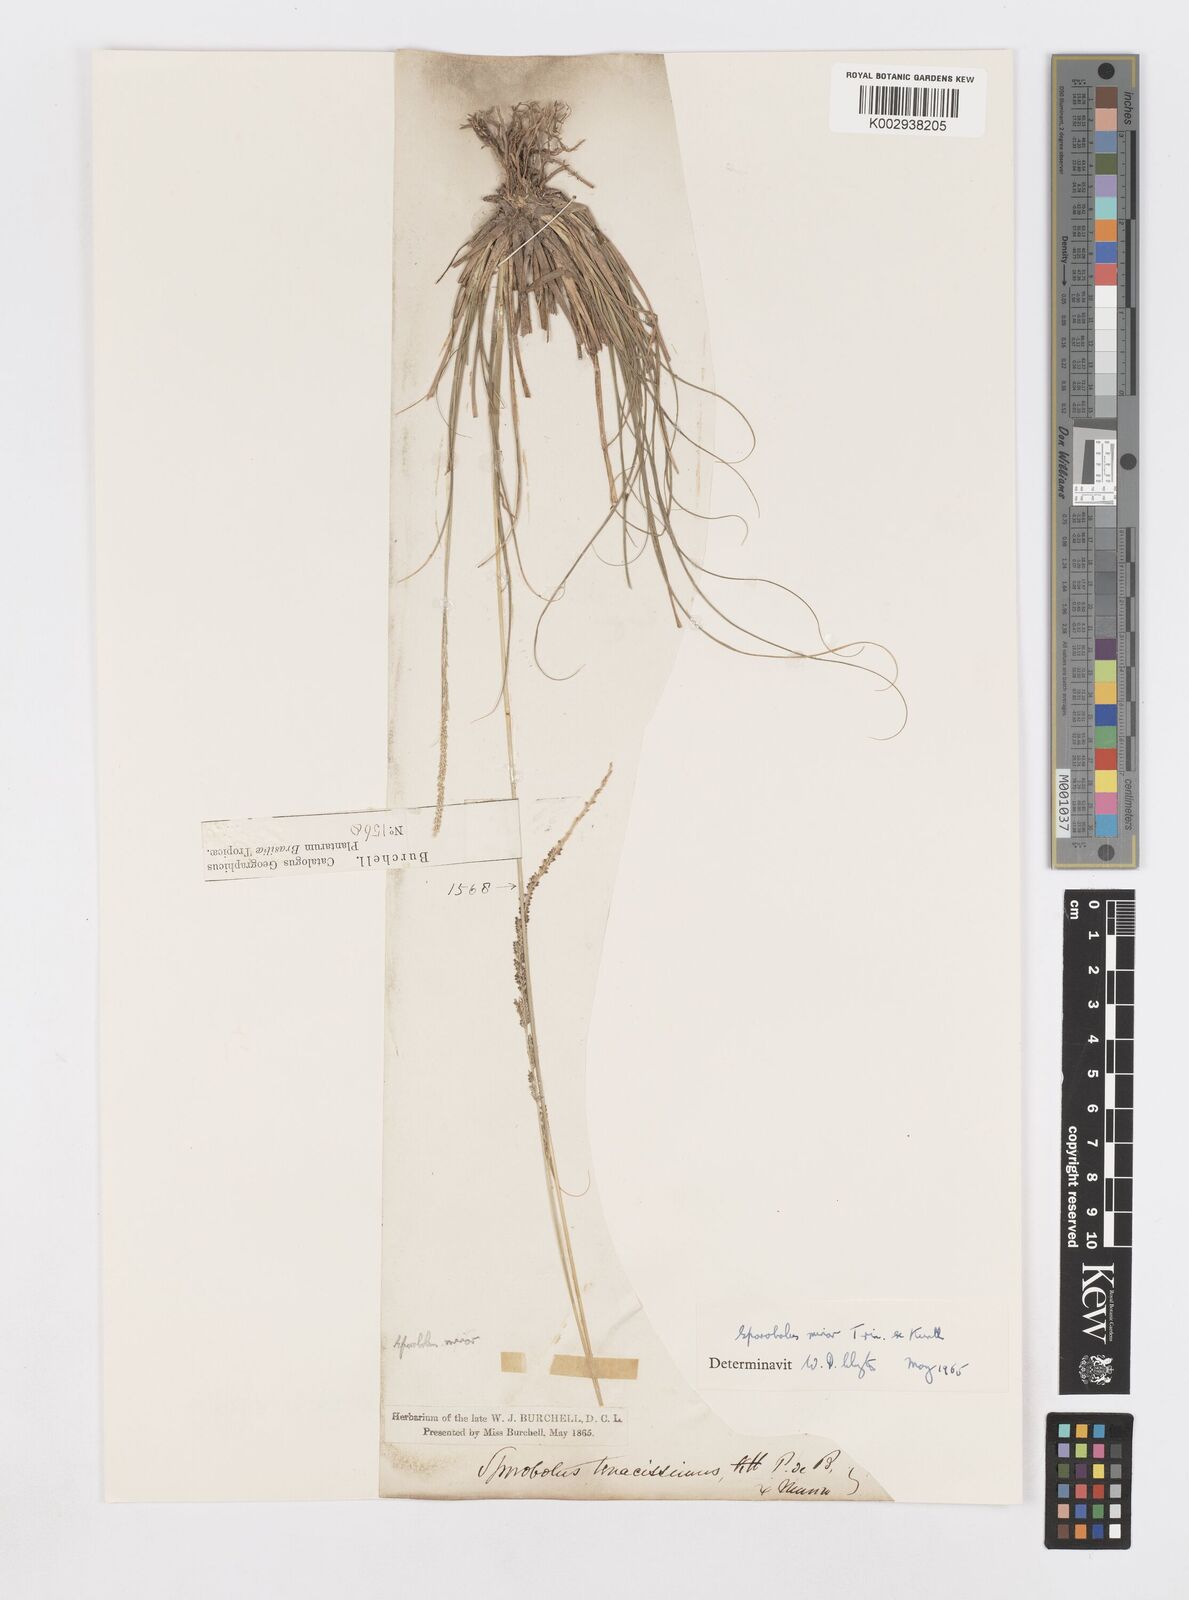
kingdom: Plantae
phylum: Tracheophyta
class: Liliopsida
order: Poales
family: Poaceae
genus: Sporobolus
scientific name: Sporobolus indicus
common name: Smut grass
